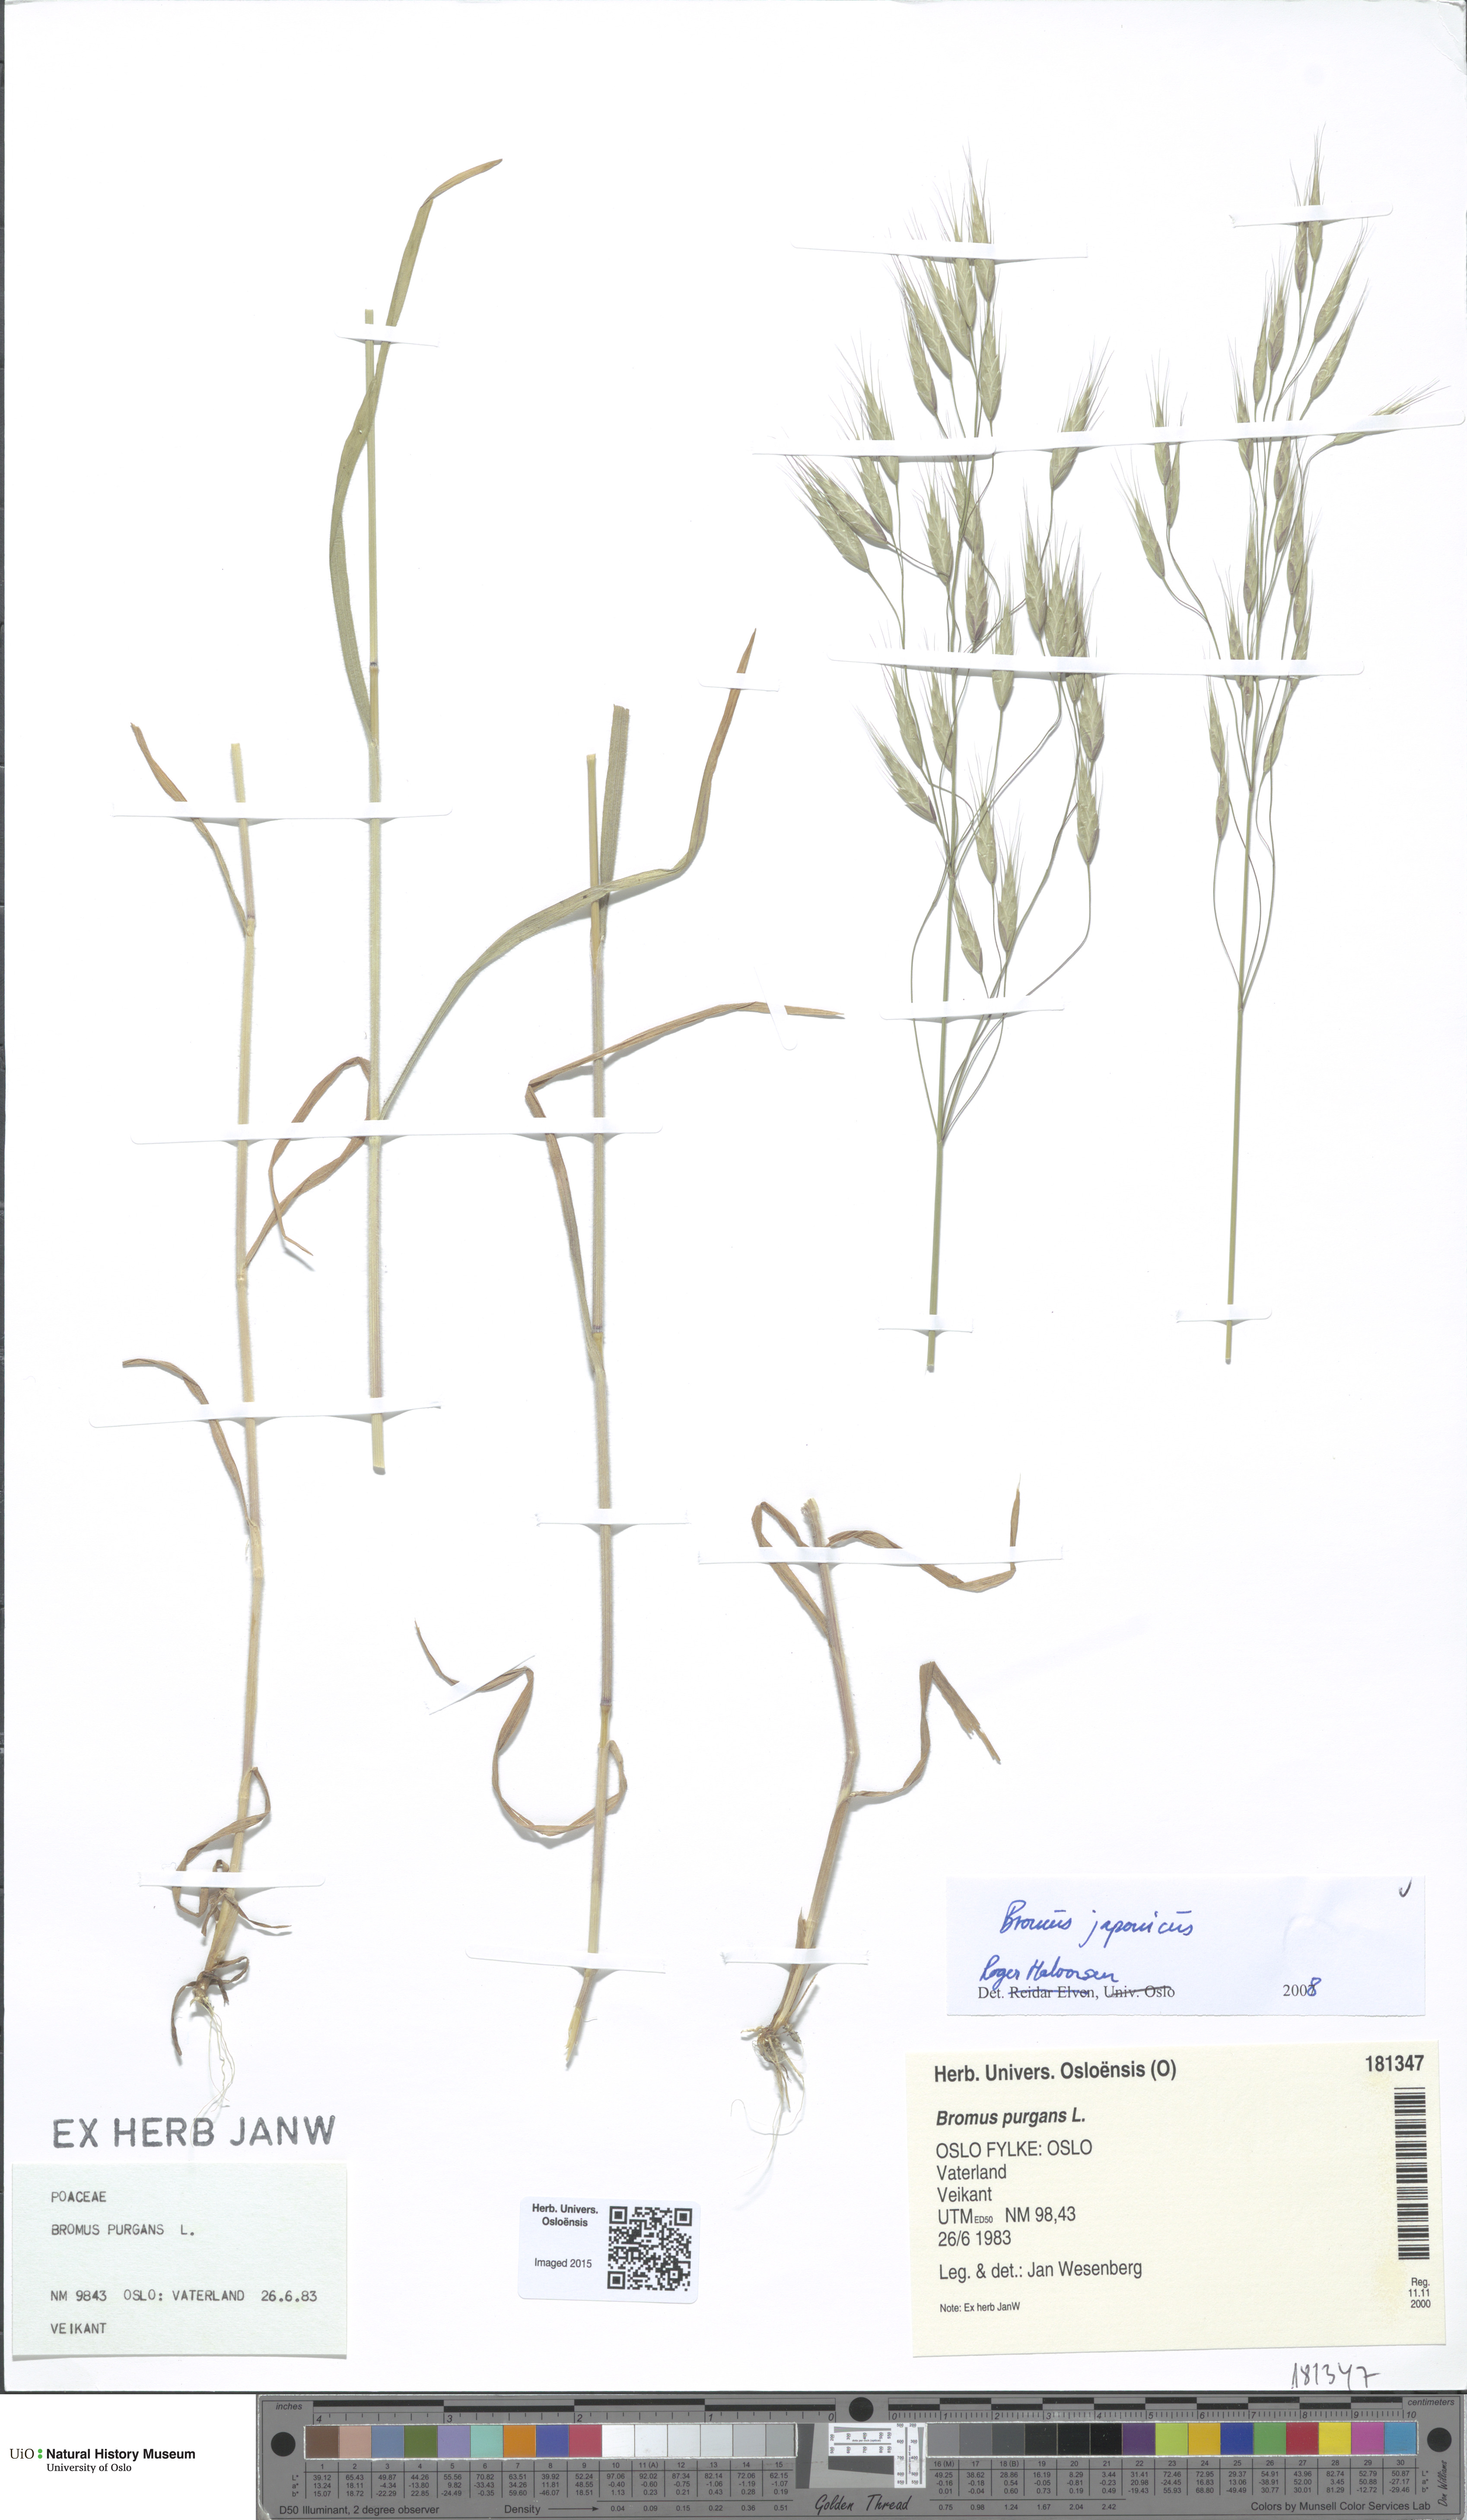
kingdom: Plantae
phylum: Tracheophyta
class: Liliopsida
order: Poales
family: Poaceae
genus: Bromus
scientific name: Bromus japonicus
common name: Japanese brome
